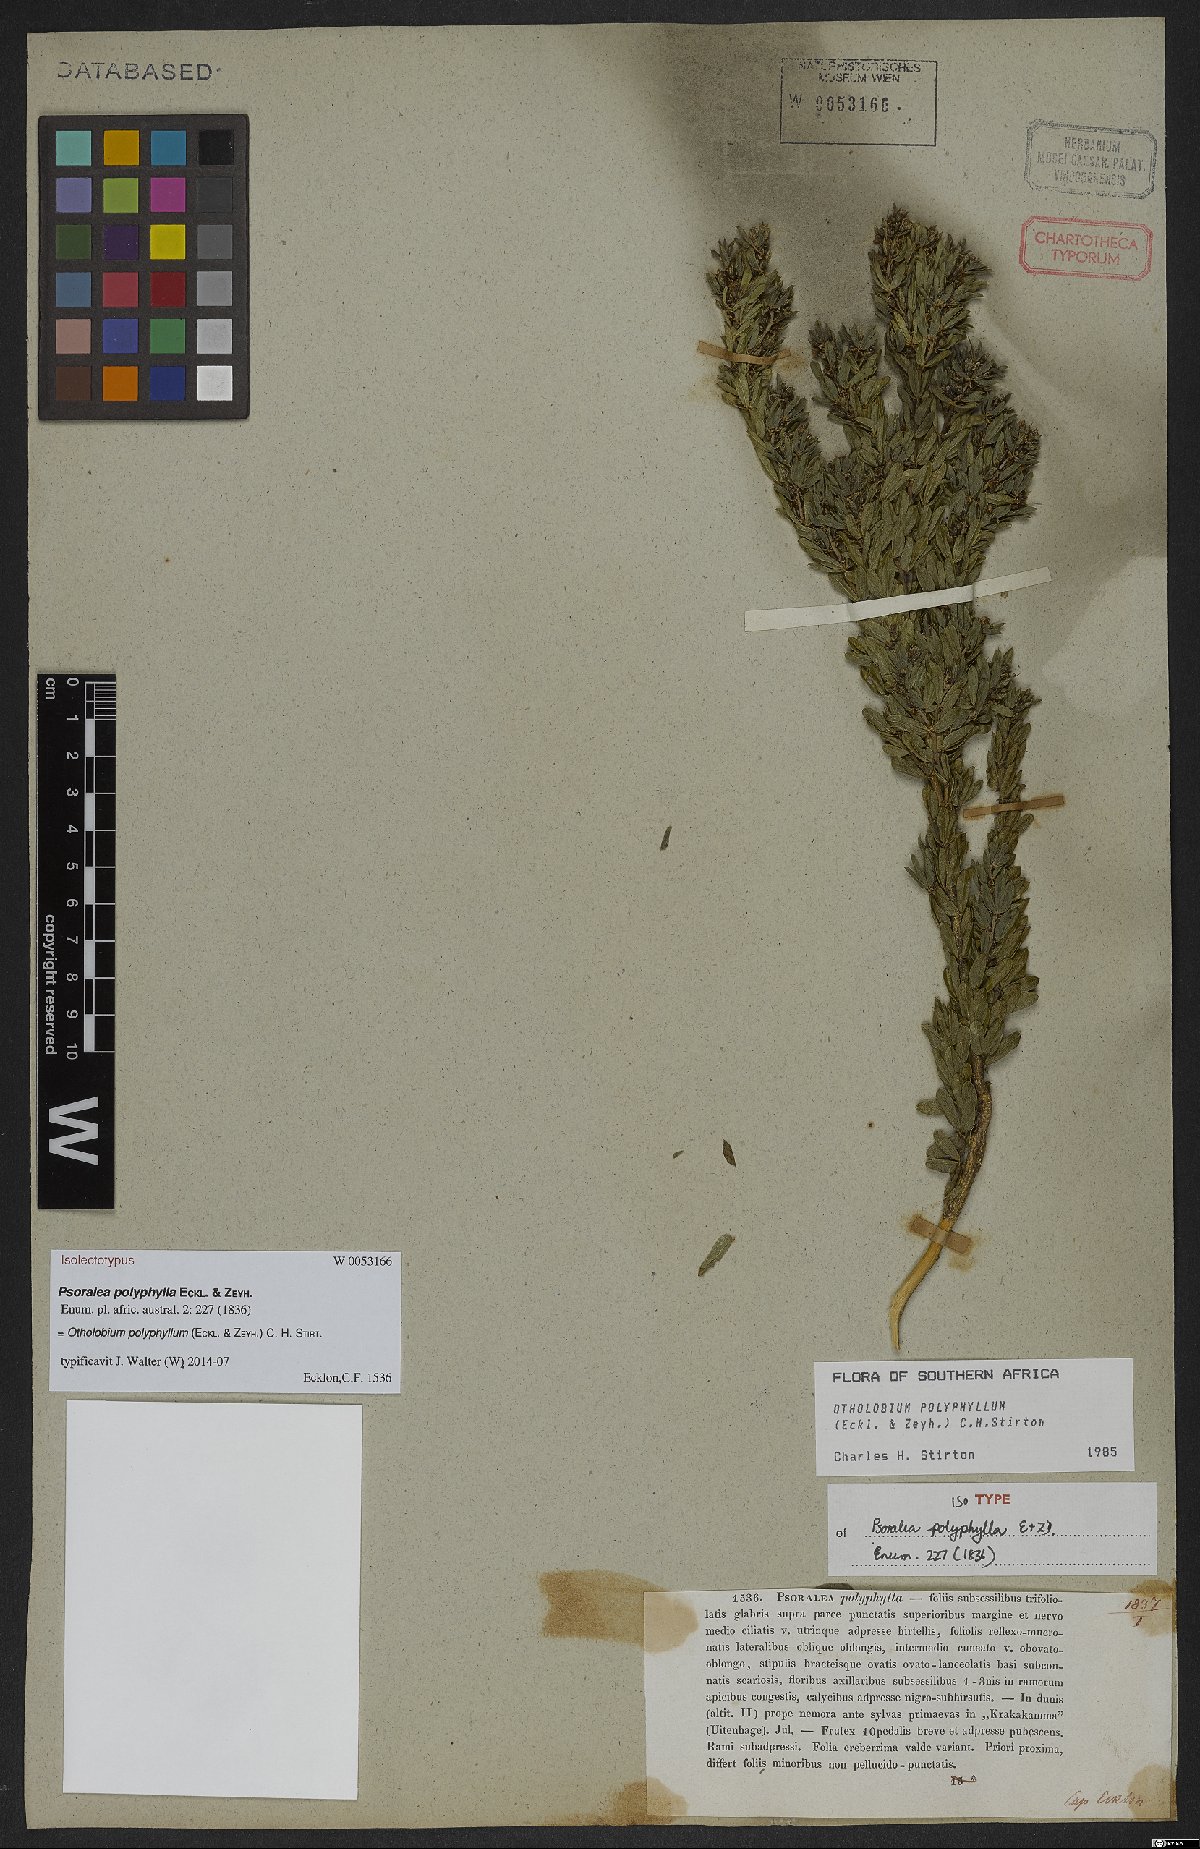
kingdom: Plantae
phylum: Tracheophyta
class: Magnoliopsida
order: Fabales
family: Fabaceae
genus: Psoralea
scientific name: Psoralea polyphylla
